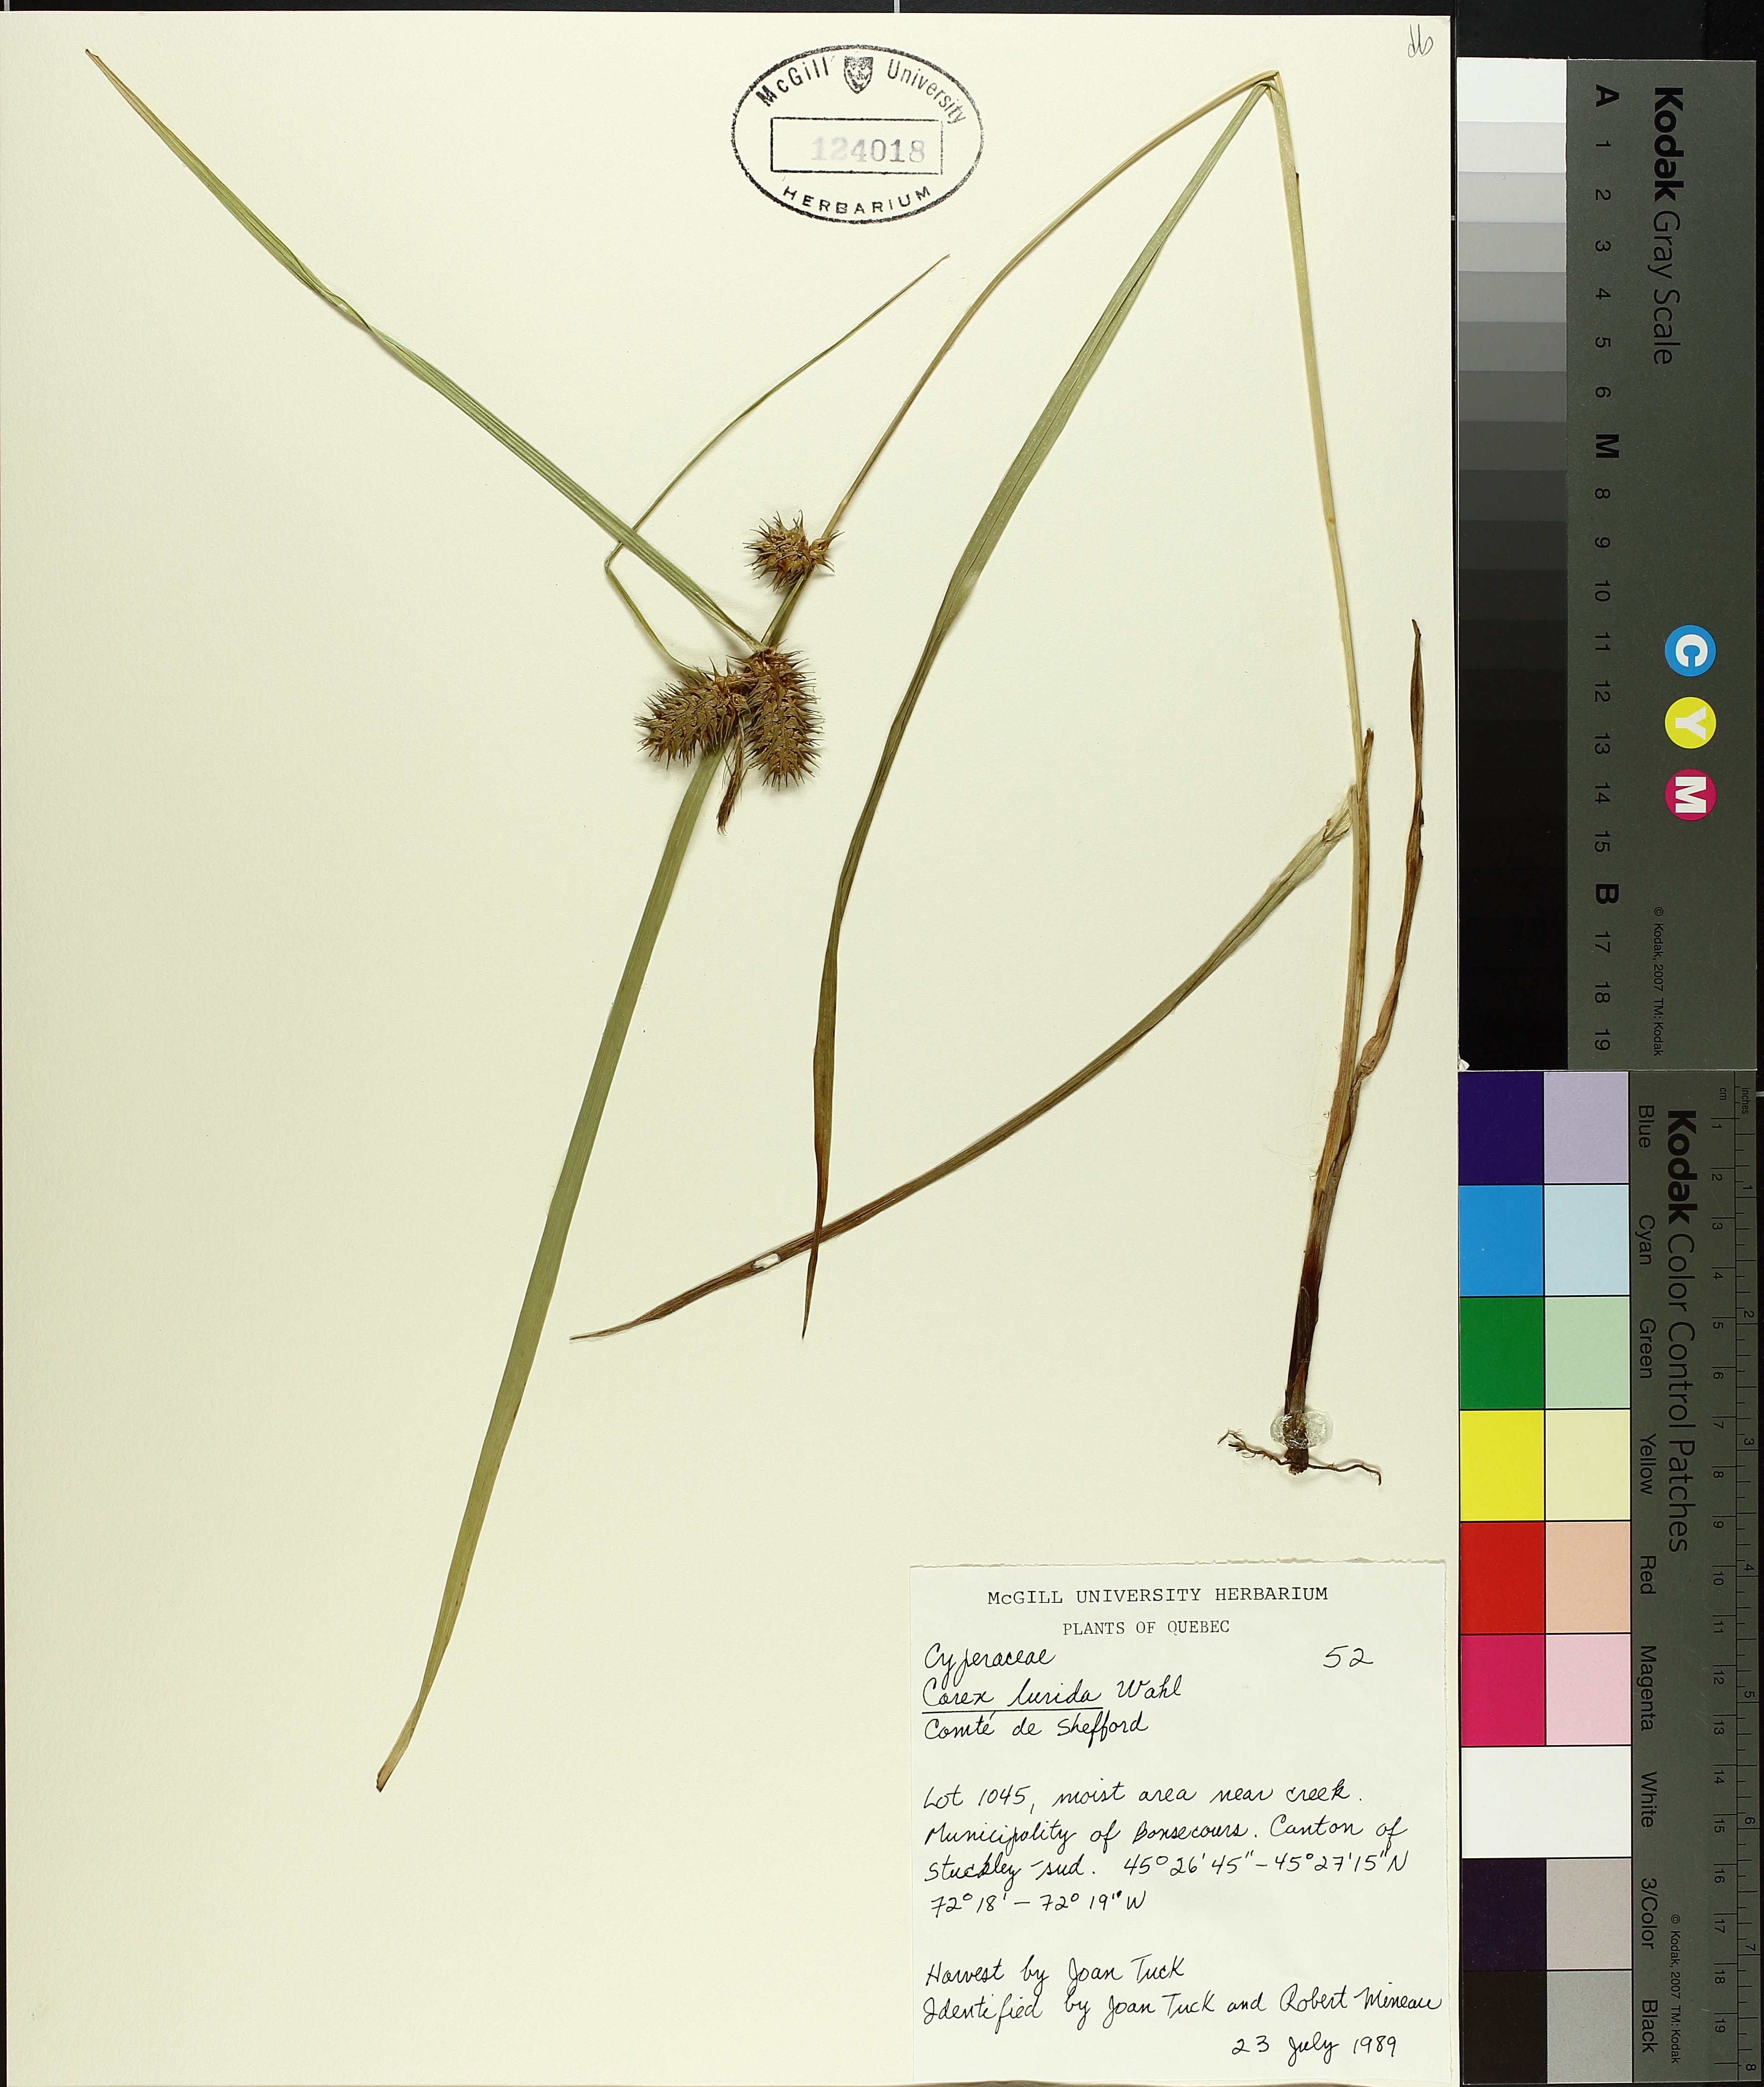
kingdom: Plantae
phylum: Tracheophyta
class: Liliopsida
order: Poales
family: Cyperaceae
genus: Carex
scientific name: Carex lurida
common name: Sallow sedge
